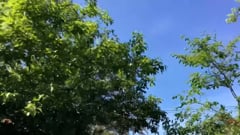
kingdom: Animalia
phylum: Chordata
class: Aves
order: Ciconiiformes
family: Ciconiidae
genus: Ciconia
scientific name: Ciconia nigra
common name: Black stork
